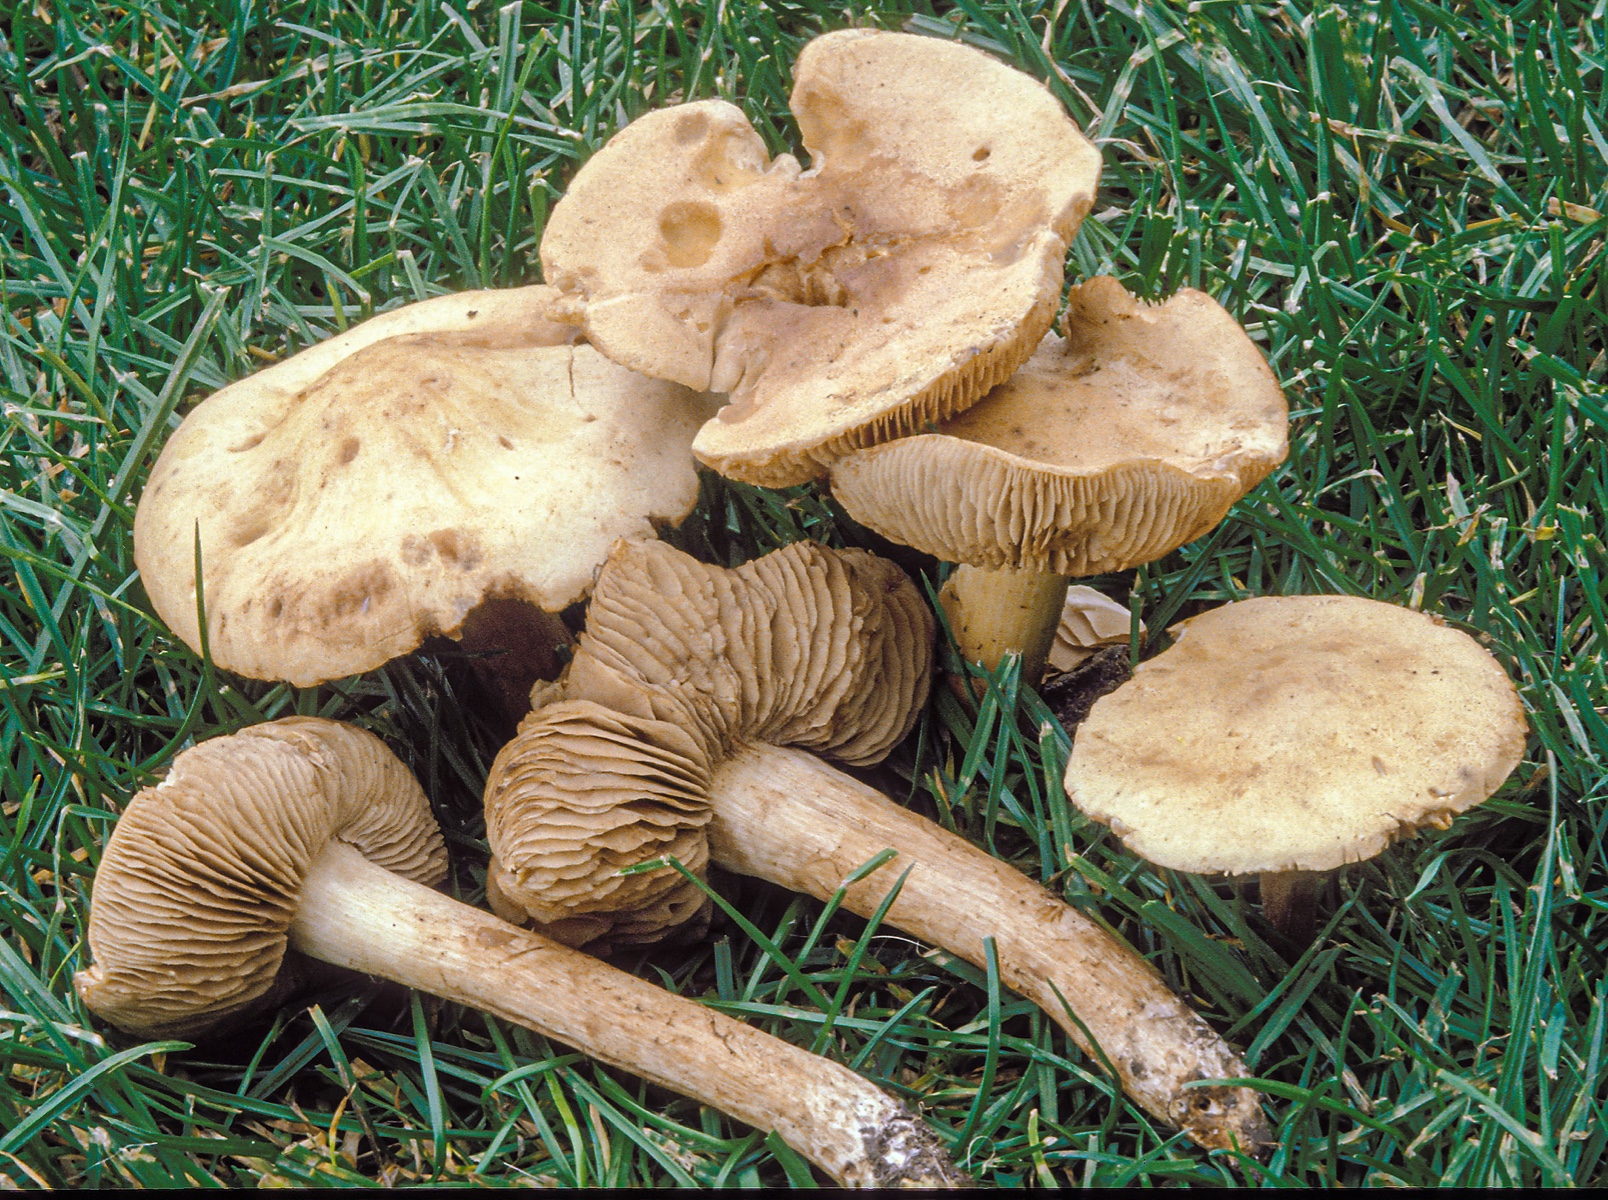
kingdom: Fungi
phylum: Basidiomycota
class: Agaricomycetes
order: Agaricales
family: Hymenogastraceae
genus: Hebeloma
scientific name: Hebeloma odoratissimum
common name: filtet tåreblad
